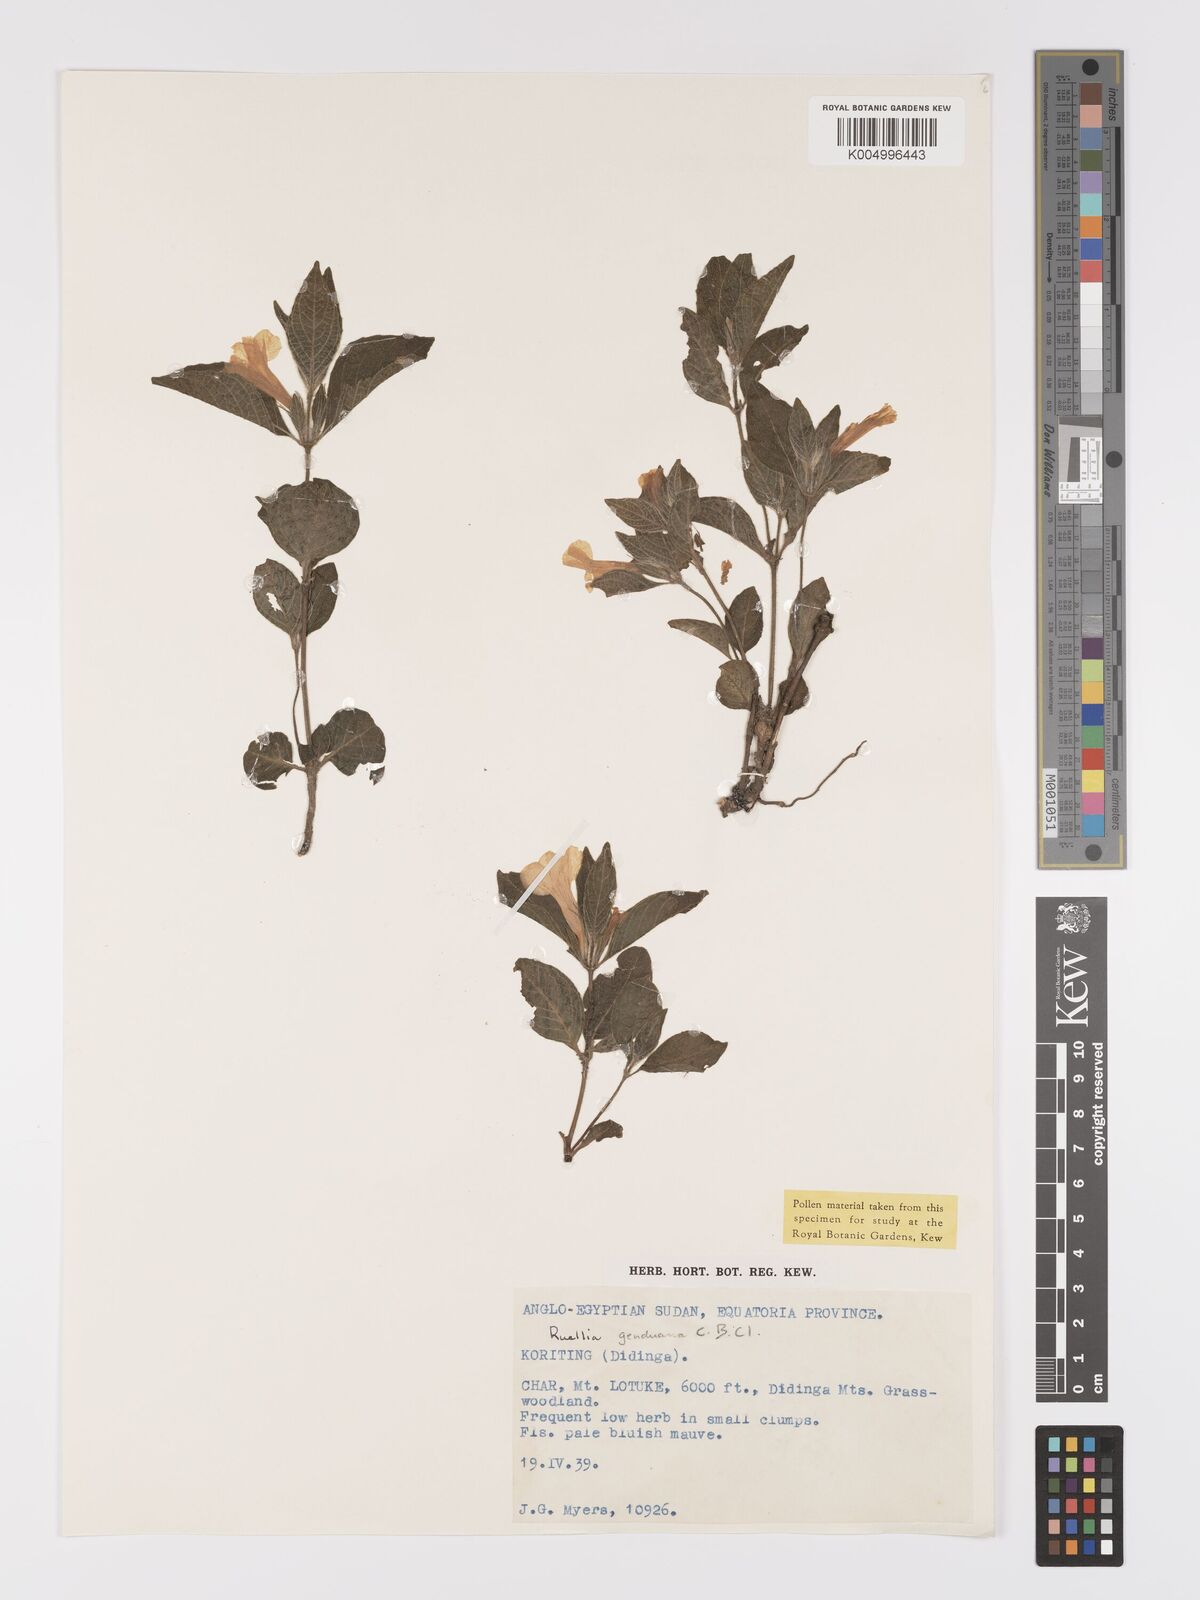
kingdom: Plantae
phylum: Tracheophyta
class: Magnoliopsida
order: Lamiales
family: Acanthaceae
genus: Ruellia
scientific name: Ruellia
